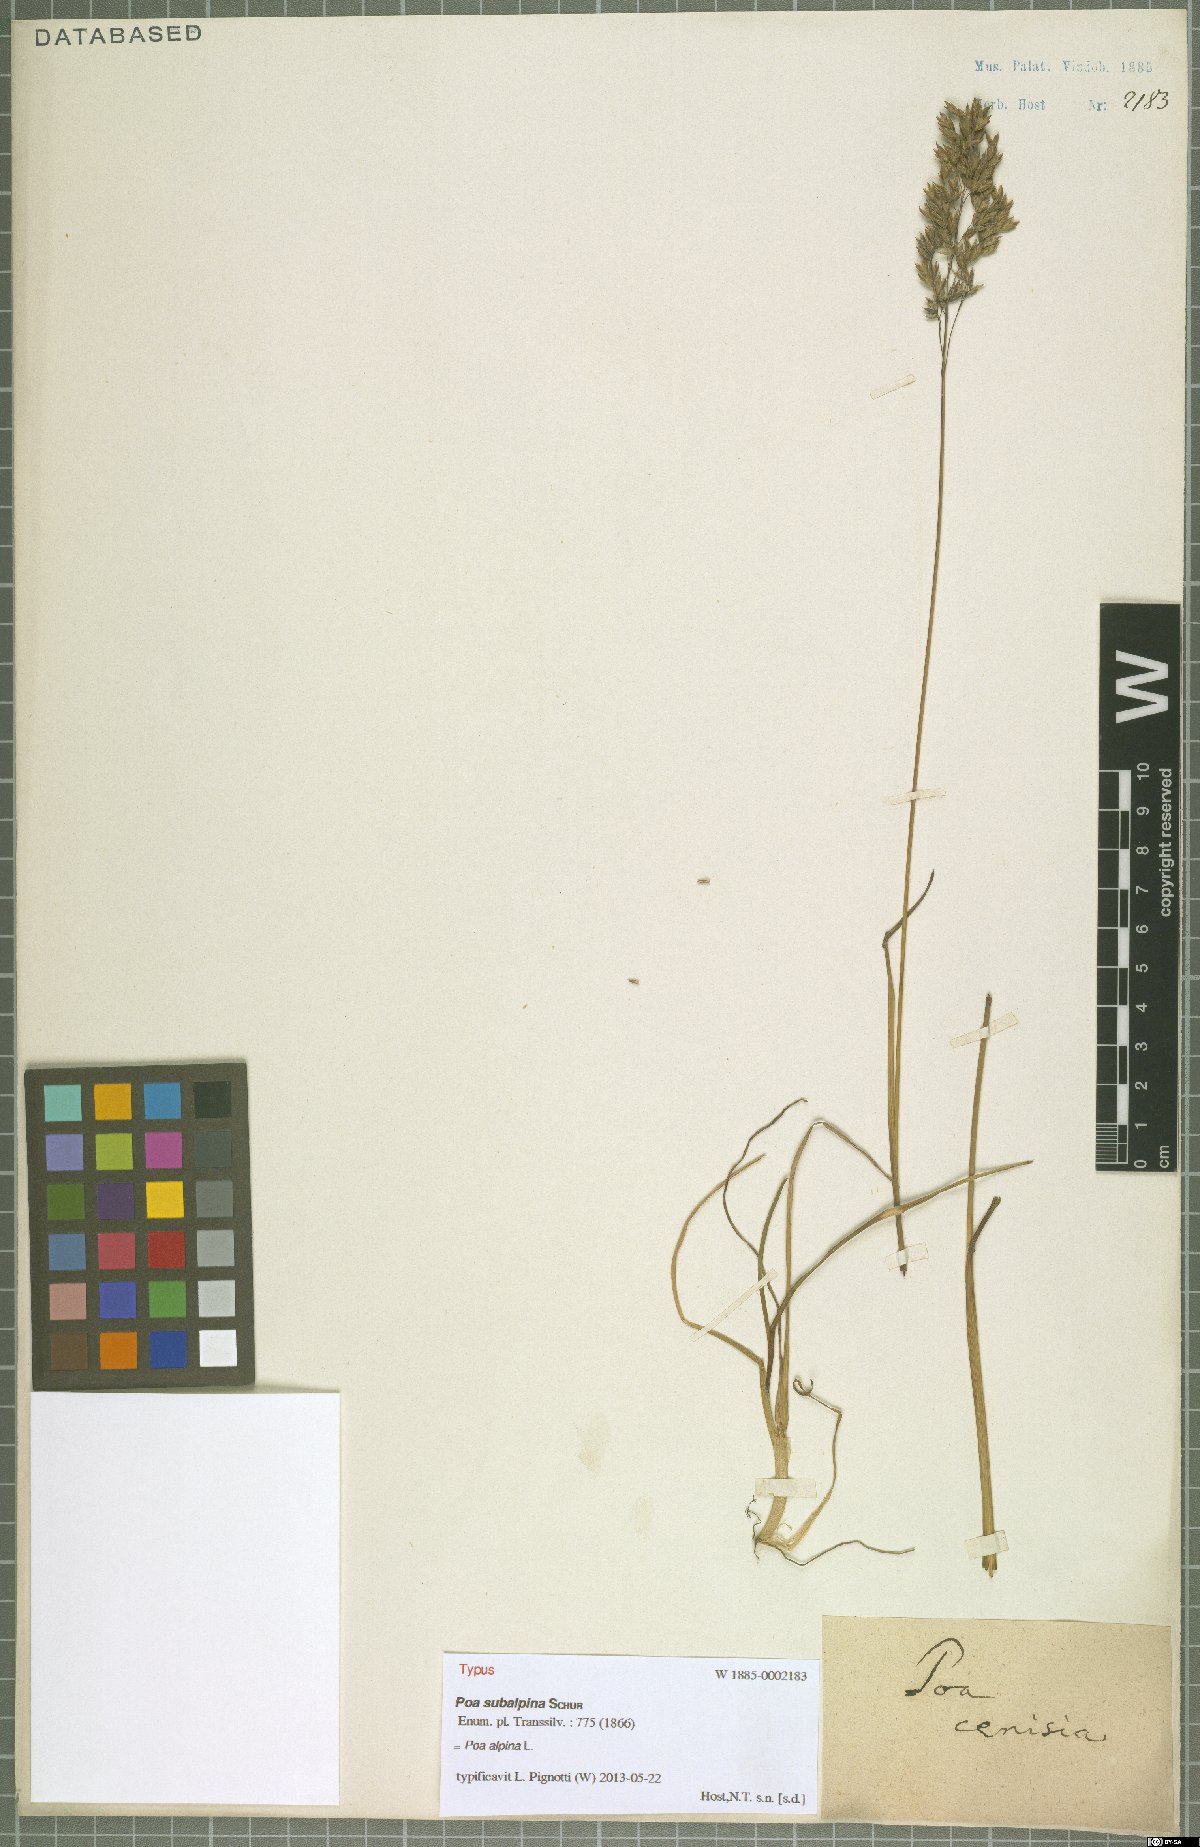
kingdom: Plantae
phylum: Tracheophyta
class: Liliopsida
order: Poales
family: Poaceae
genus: Poa
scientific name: Poa alpina
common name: Alpine bluegrass
